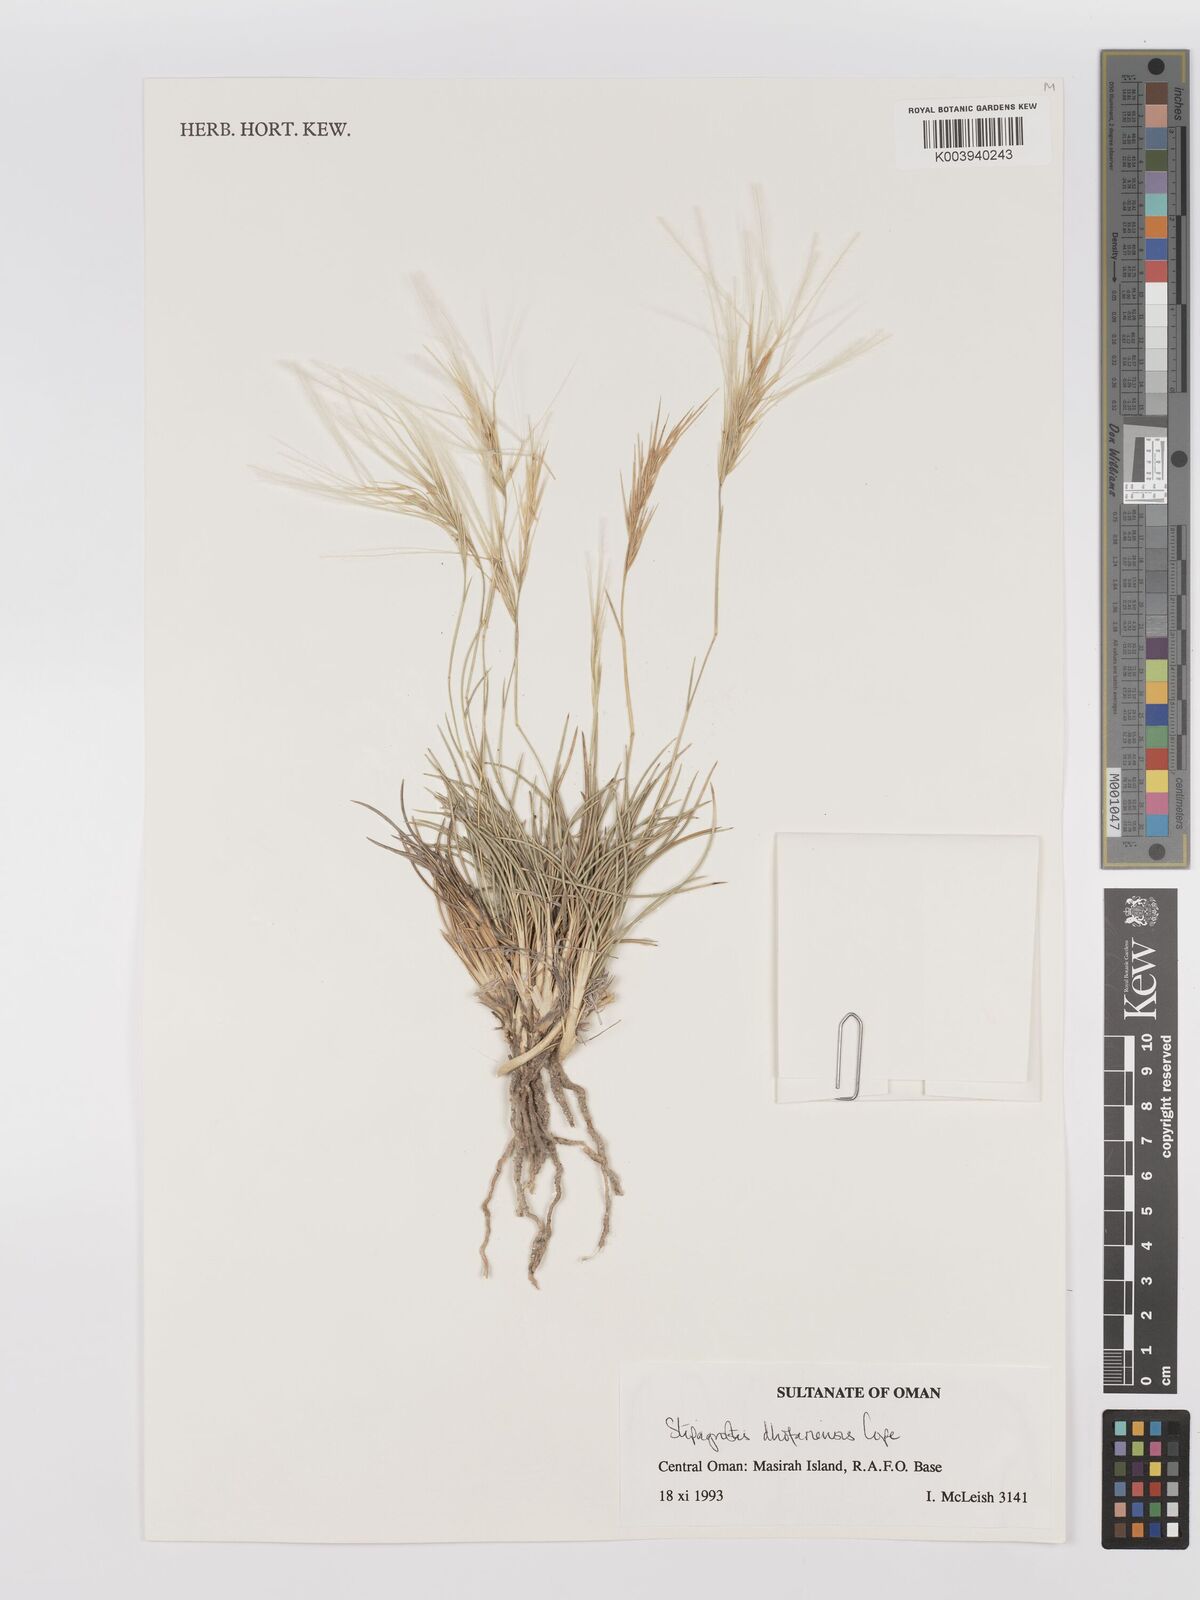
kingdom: Plantae
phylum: Tracheophyta
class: Liliopsida
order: Poales
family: Poaceae
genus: Stipagrostis
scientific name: Stipagrostis dhofariensis
